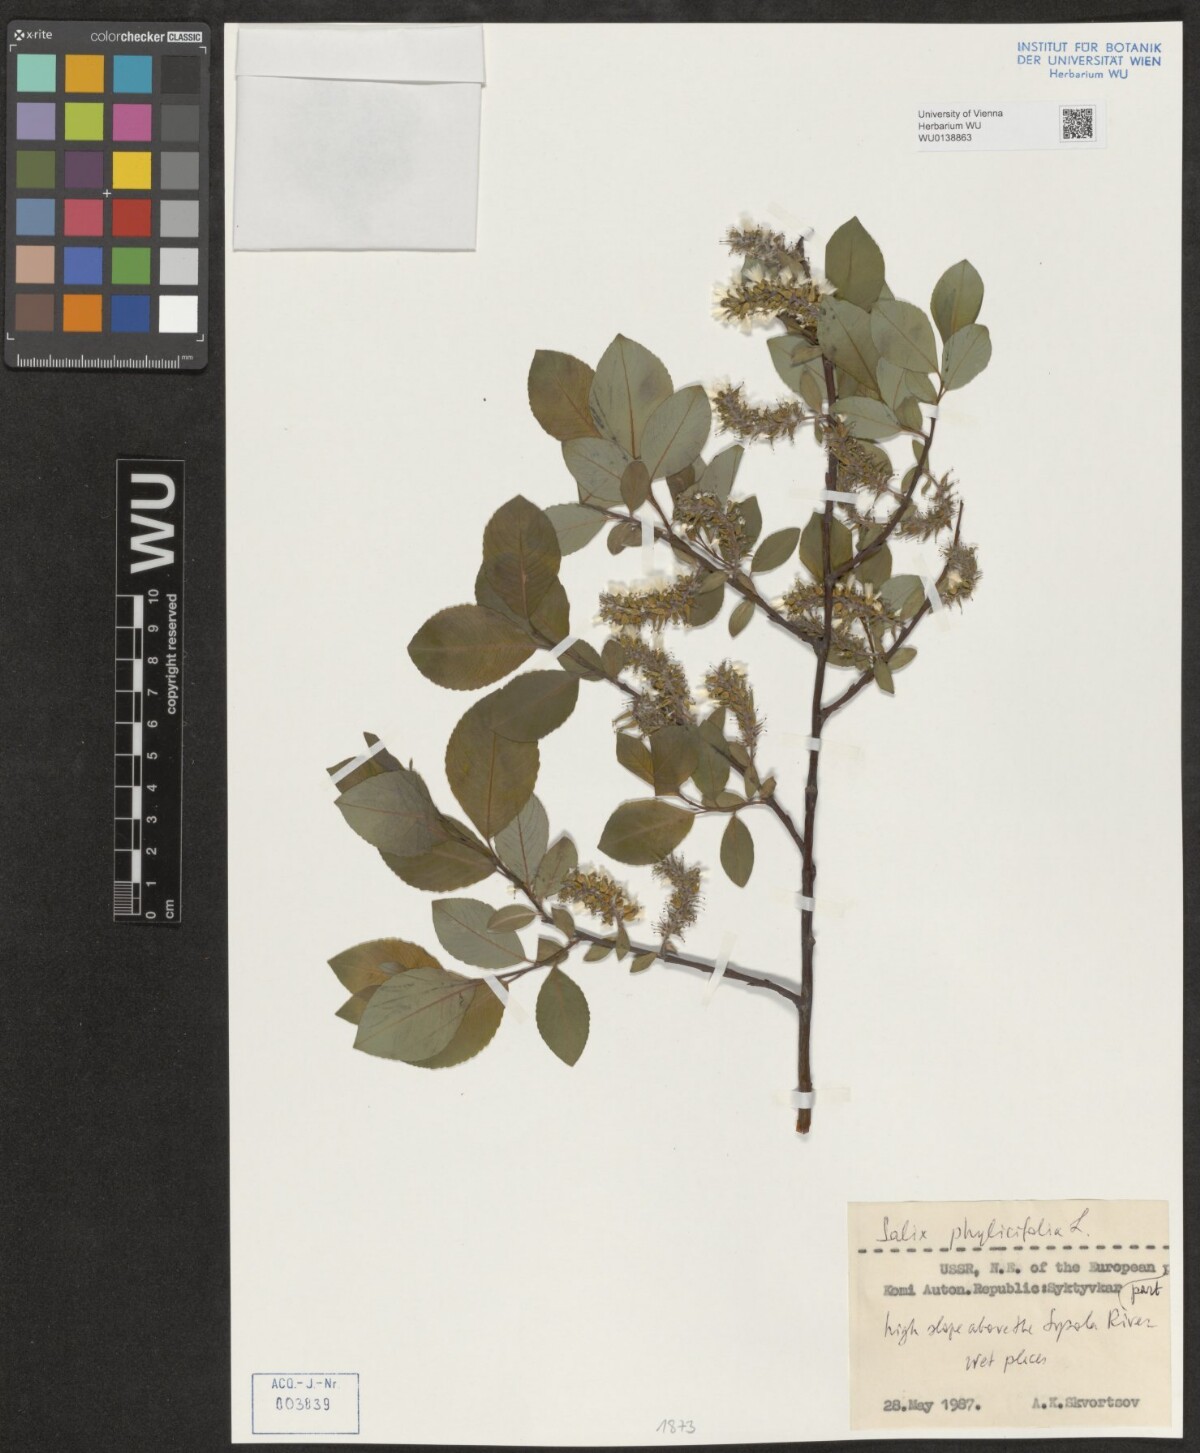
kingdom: Plantae
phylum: Tracheophyta
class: Magnoliopsida
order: Malpighiales
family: Salicaceae
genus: Salix
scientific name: Salix phylicifolia
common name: Tea-leaved willow
